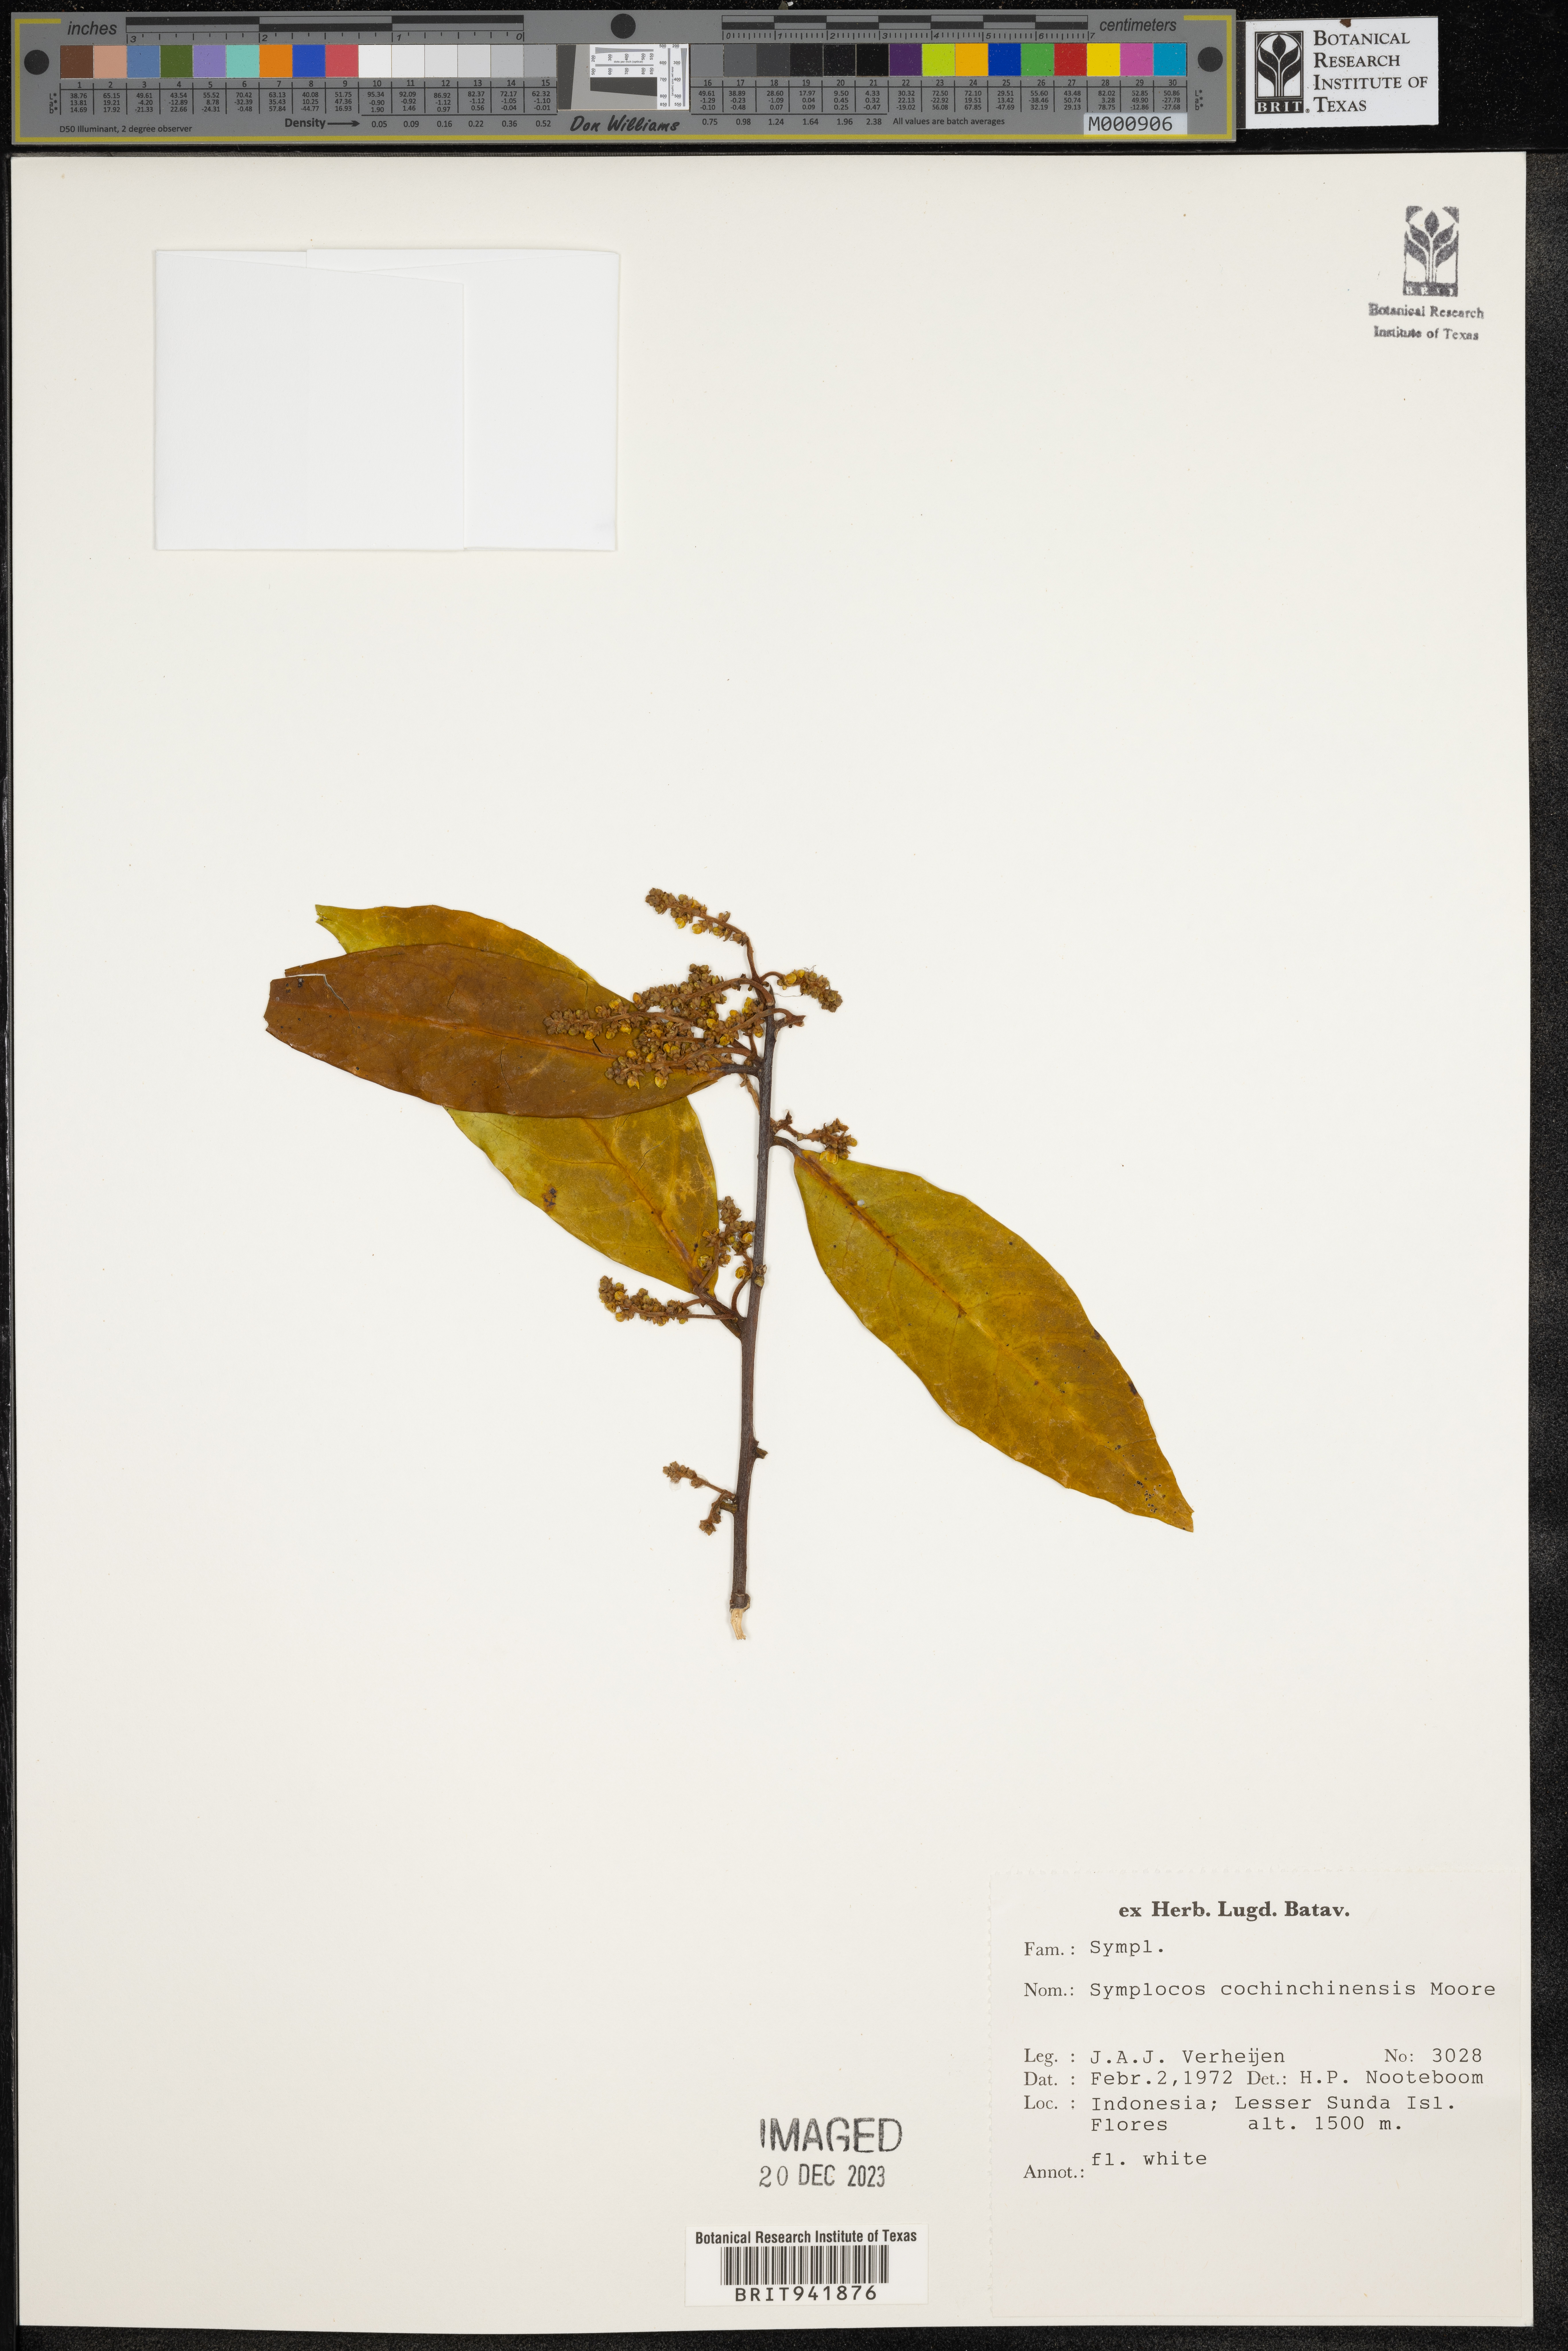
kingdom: Plantae
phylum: Tracheophyta
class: Magnoliopsida
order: Ericales
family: Symplocaceae
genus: Symplocos
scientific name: Symplocos cochinchinensis
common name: Buff hazelwood
